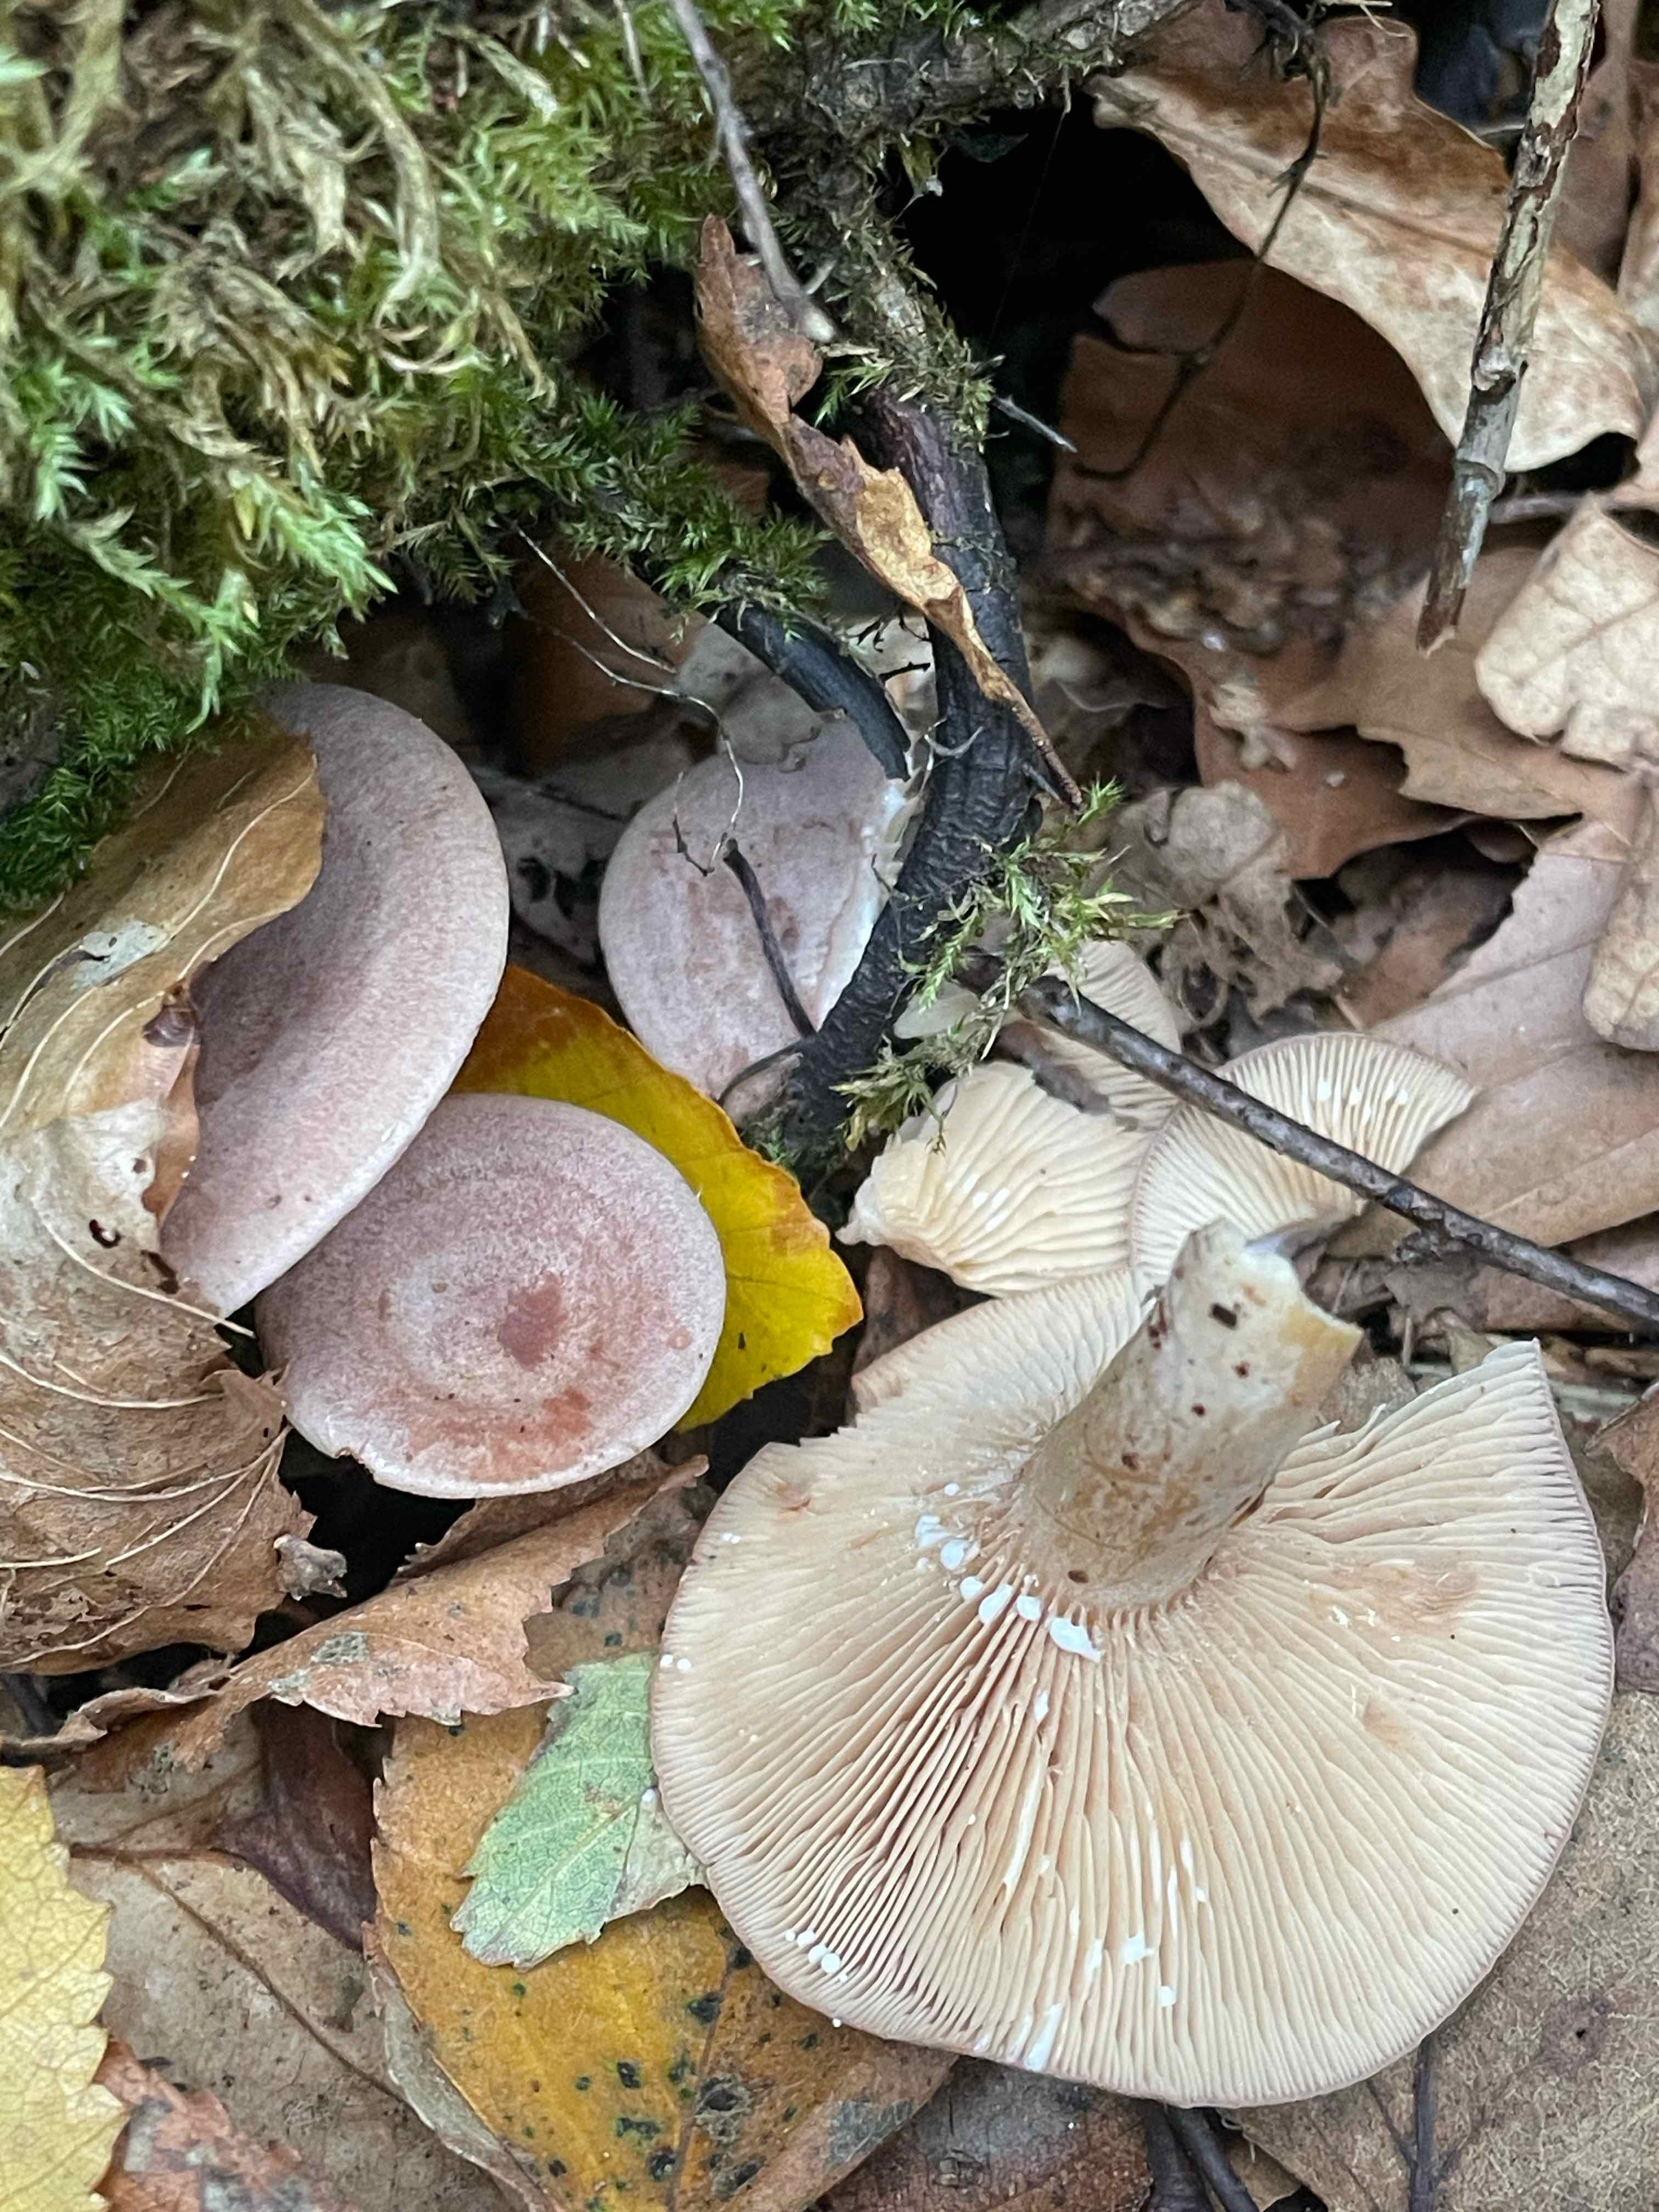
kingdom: Fungi
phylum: Basidiomycota
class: Agaricomycetes
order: Russulales
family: Russulaceae
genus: Lactarius
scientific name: Lactarius glyciosmus
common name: kokos-mælkehat
